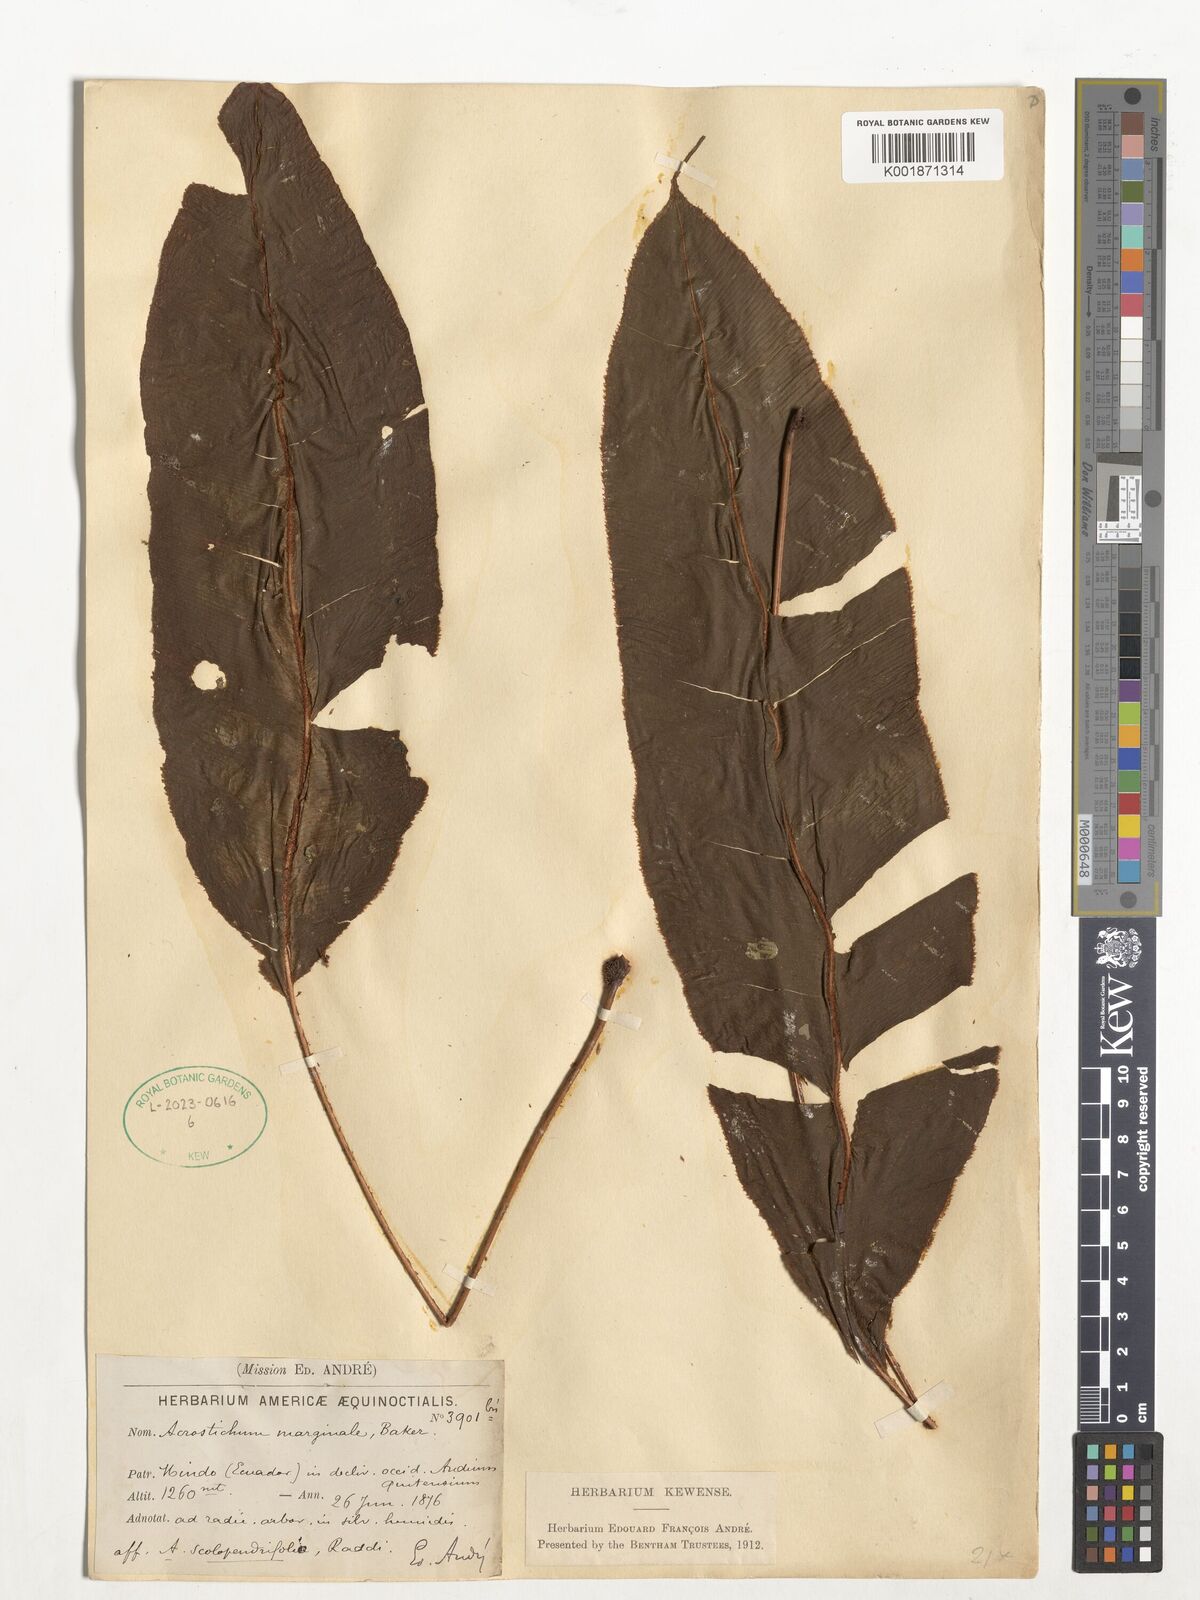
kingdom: Plantae
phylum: Tracheophyta
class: Polypodiopsida
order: Polypodiales
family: Dryopteridaceae
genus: Elaphoglossum
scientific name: Elaphoglossum marginale
